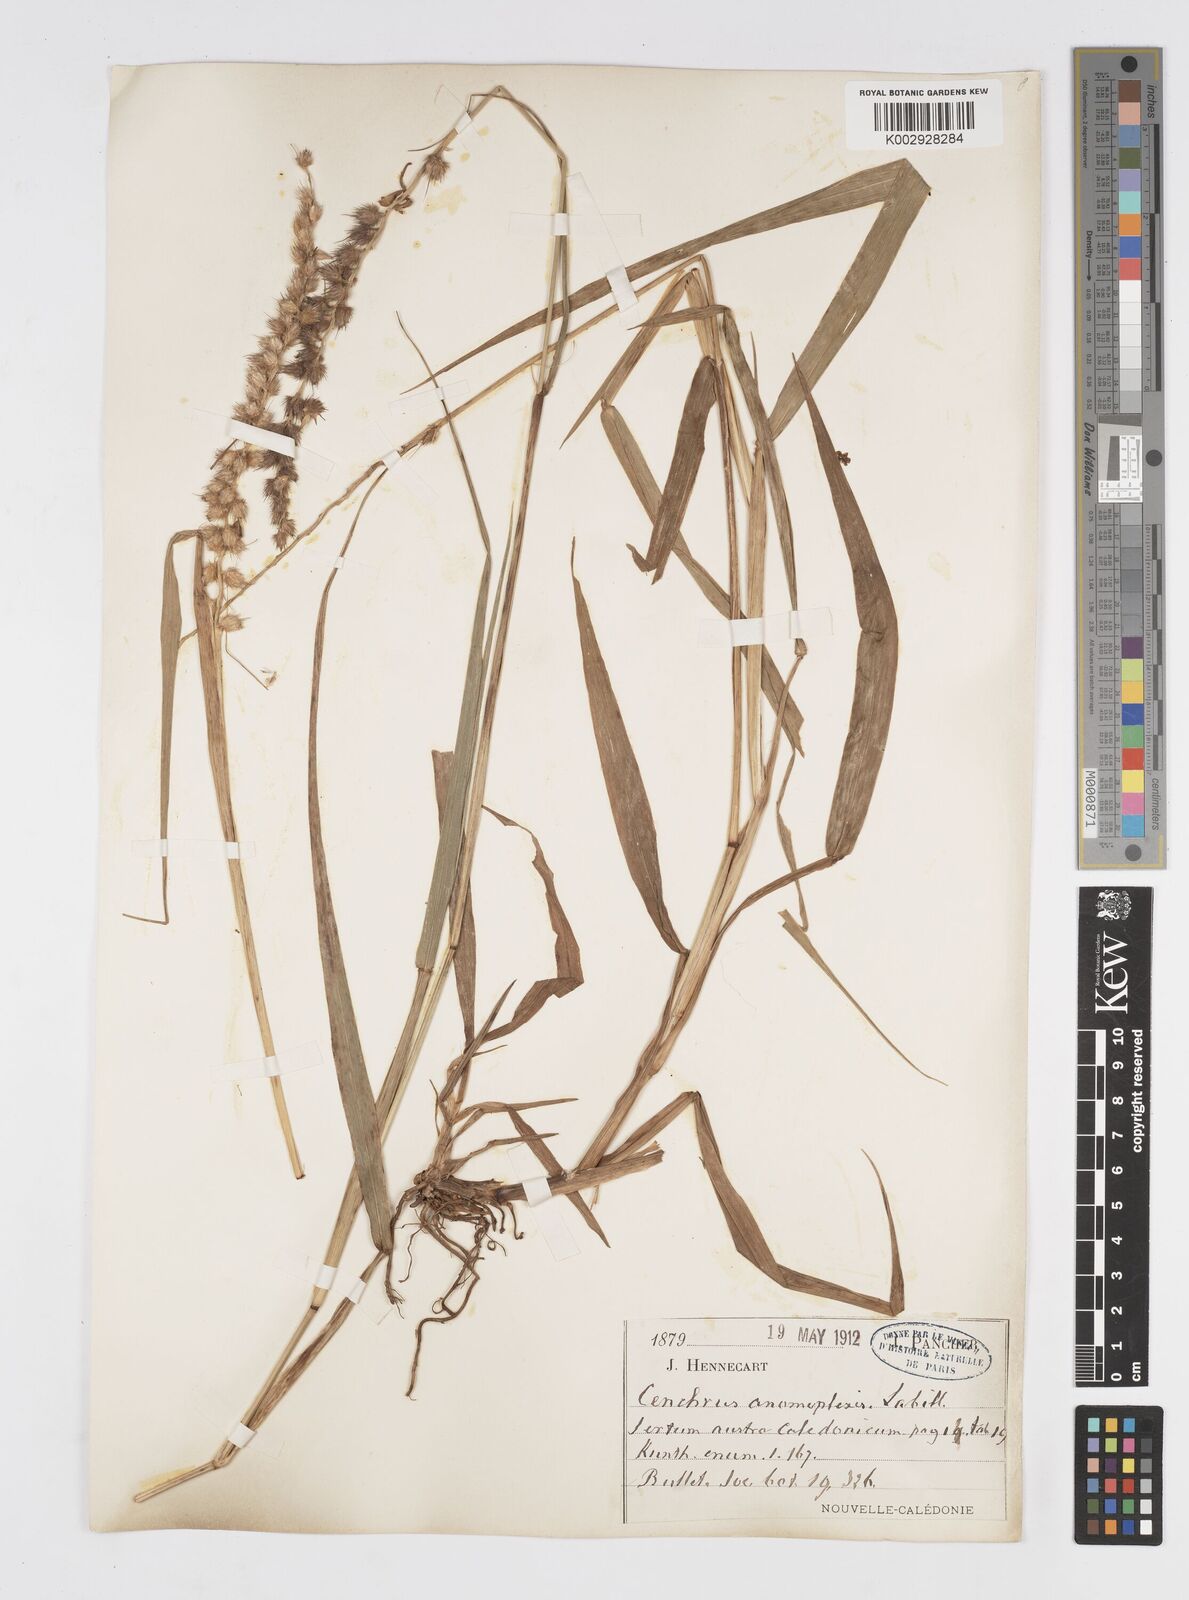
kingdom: Plantae
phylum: Tracheophyta
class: Liliopsida
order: Poales
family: Poaceae
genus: Cenchrus
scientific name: Cenchrus caliculatus
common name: Large bur grass
